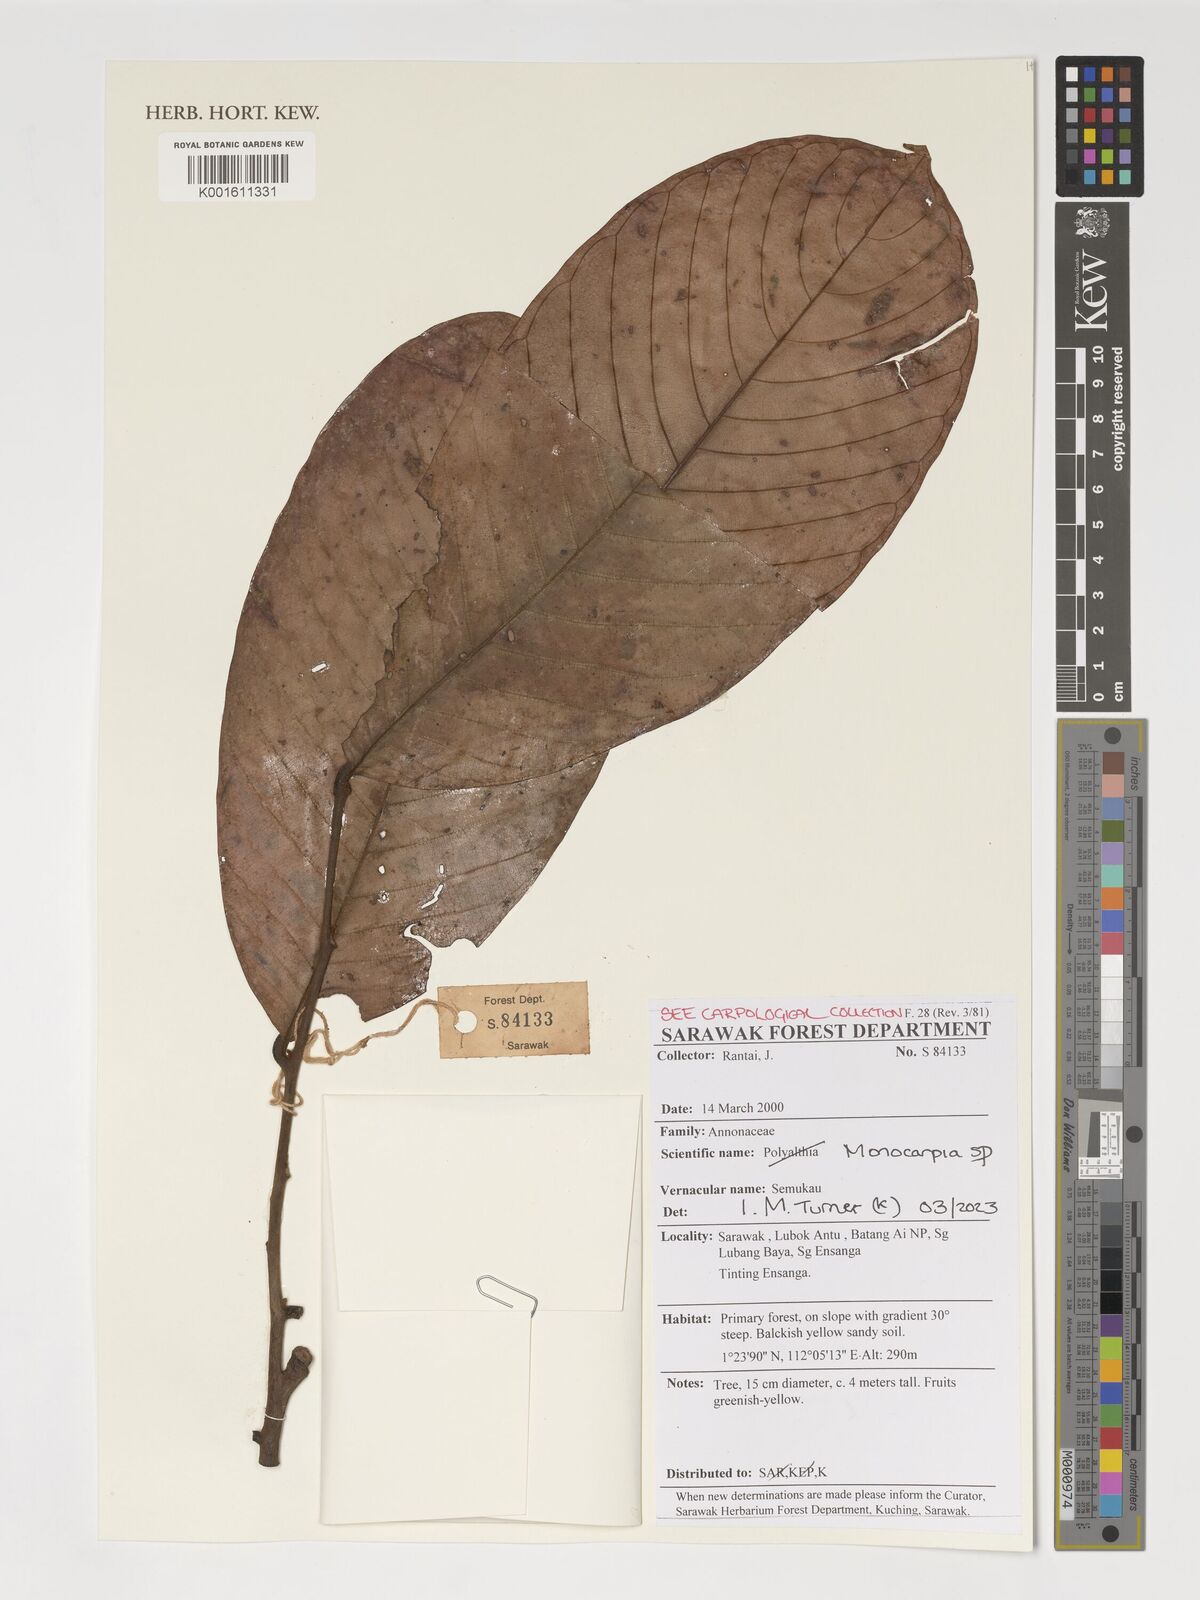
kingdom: Plantae
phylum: Tracheophyta
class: Magnoliopsida
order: Magnoliales
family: Annonaceae
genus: Monocarpia
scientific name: Monocarpia
